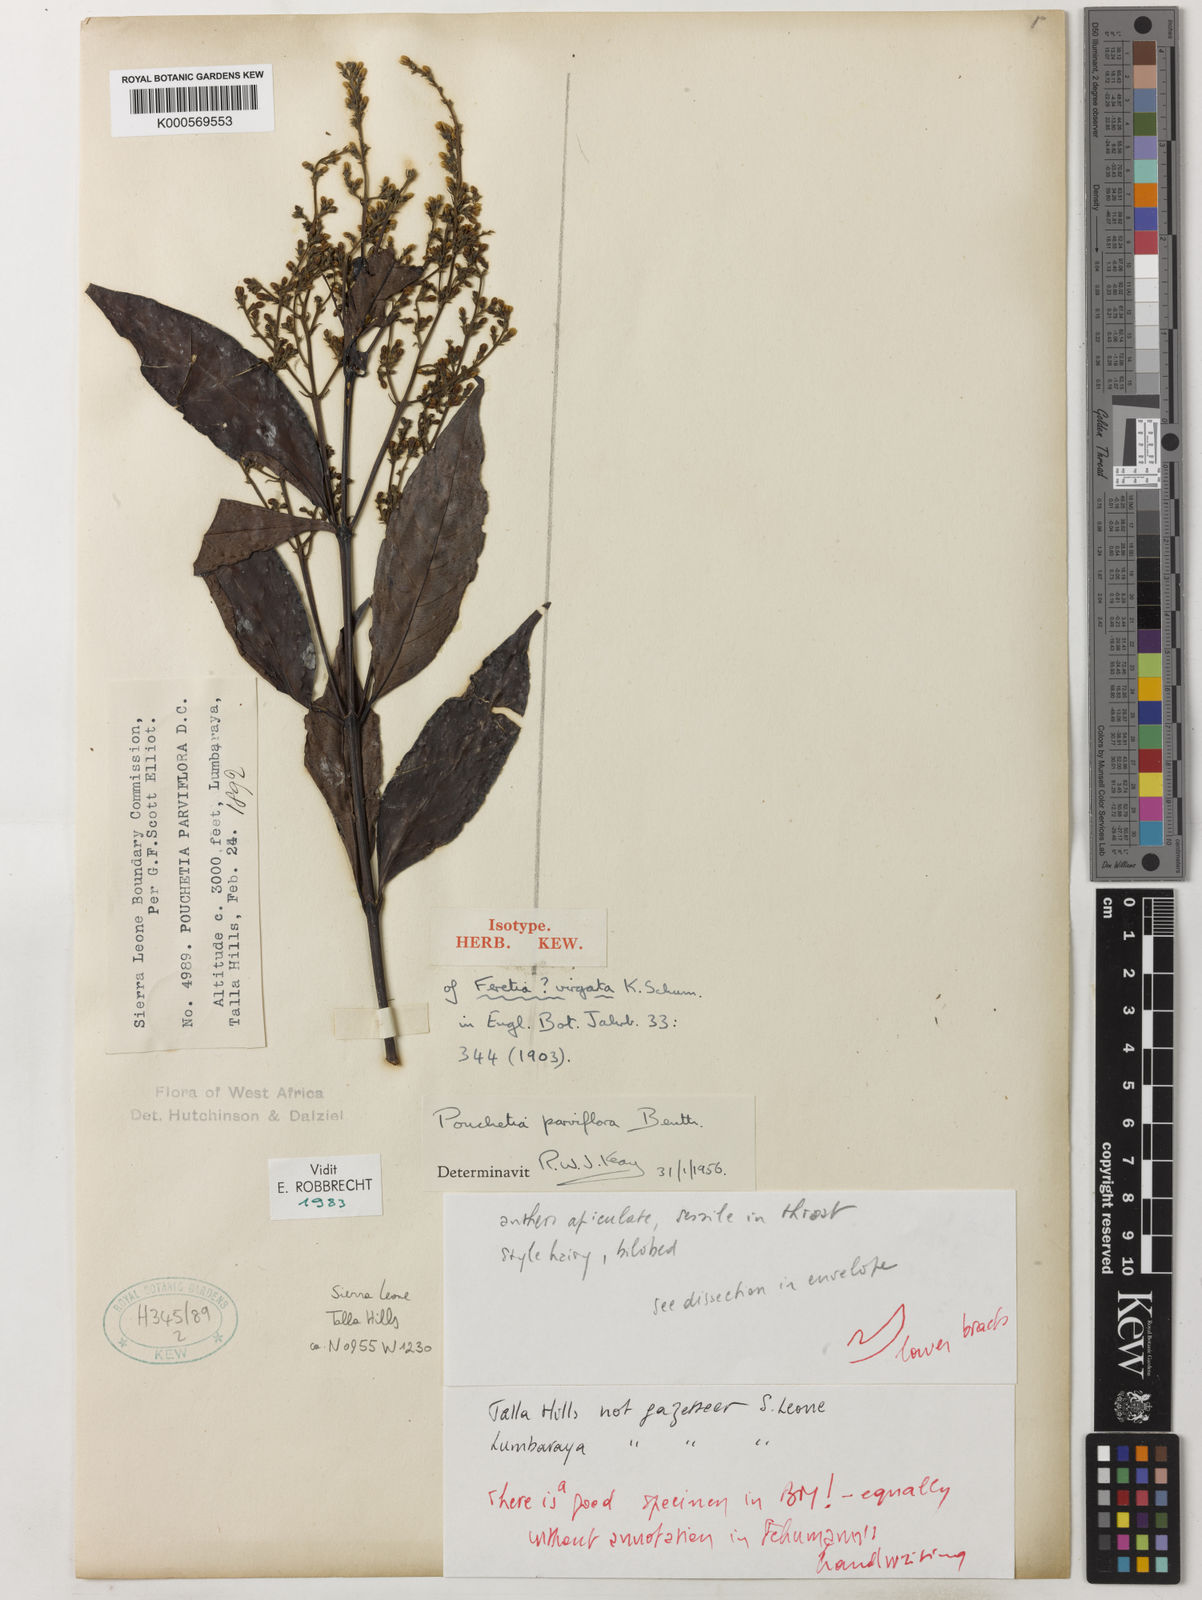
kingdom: Plantae
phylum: Tracheophyta
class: Magnoliopsida
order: Gentianales
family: Rubiaceae
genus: Pouchetia
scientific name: Pouchetia parviflora
